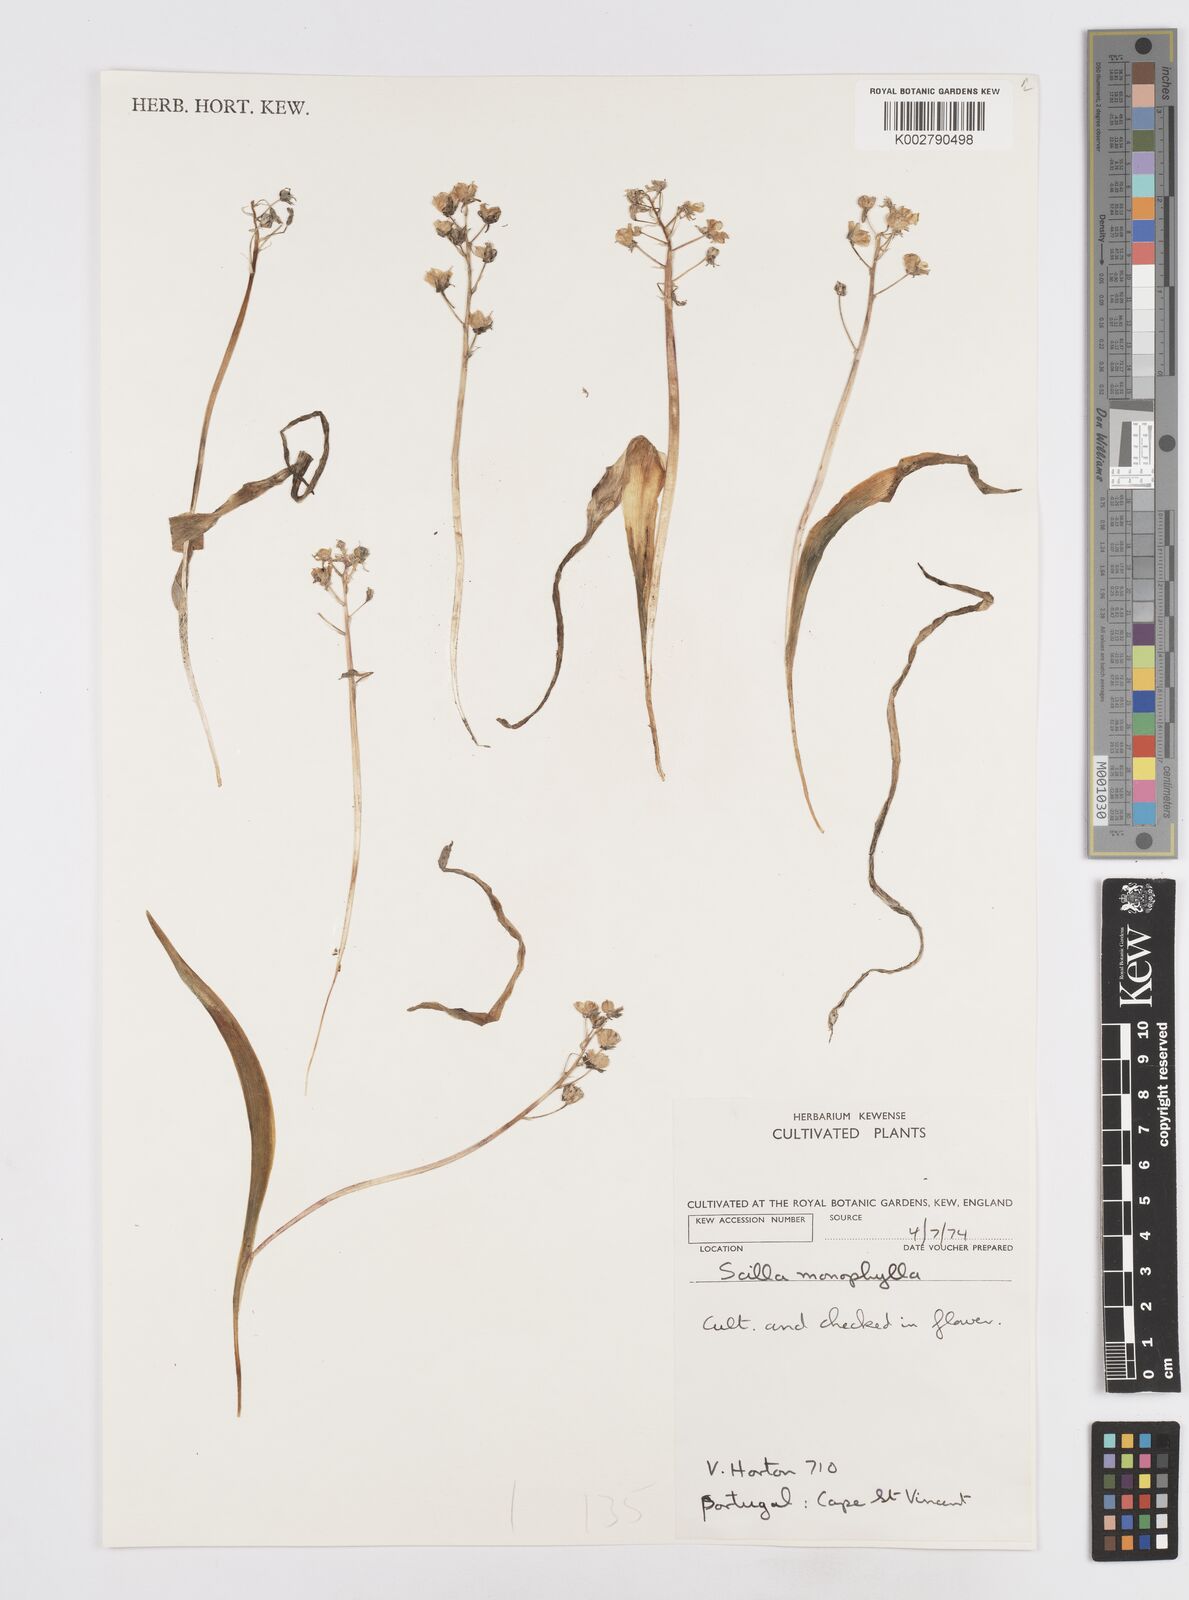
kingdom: Plantae
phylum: Tracheophyta
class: Liliopsida
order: Asparagales
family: Asparagaceae
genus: Scilla
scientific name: Scilla monophyllos
